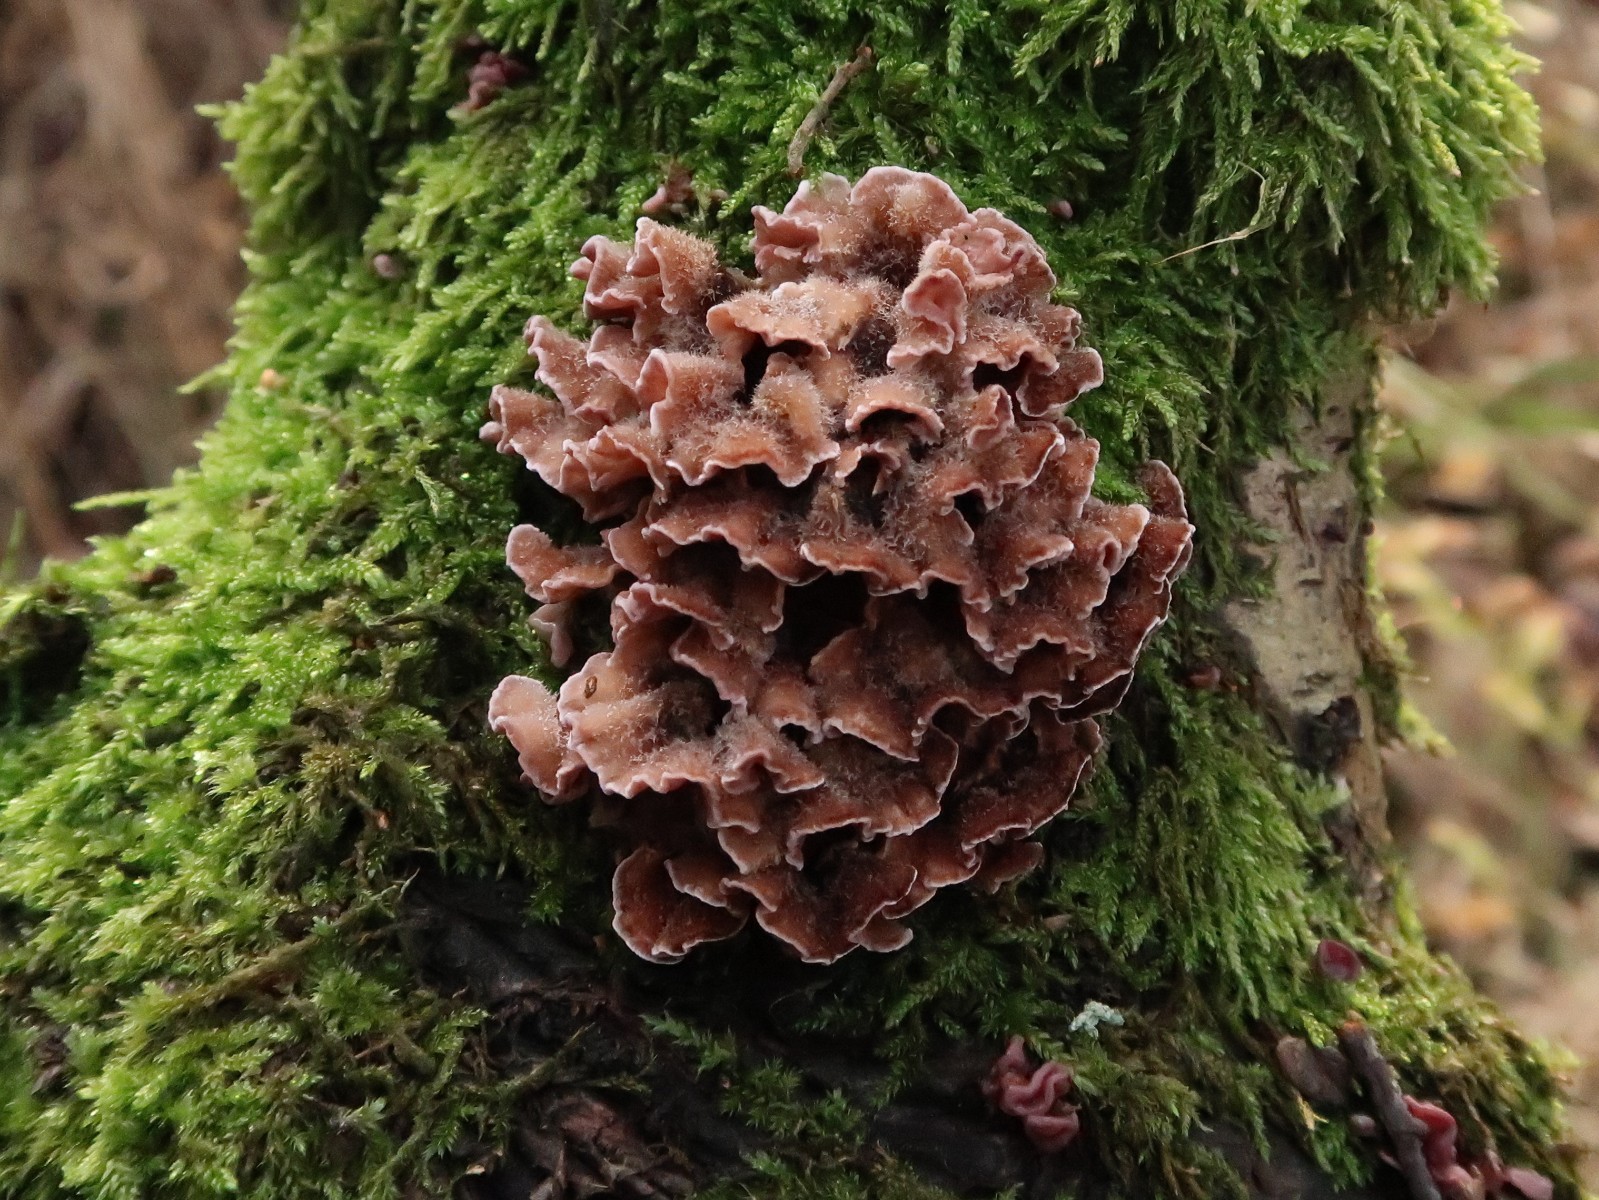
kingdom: Fungi
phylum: Basidiomycota
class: Agaricomycetes
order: Agaricales
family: Cyphellaceae
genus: Chondrostereum
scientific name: Chondrostereum purpureum
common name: purpurlædersvamp
